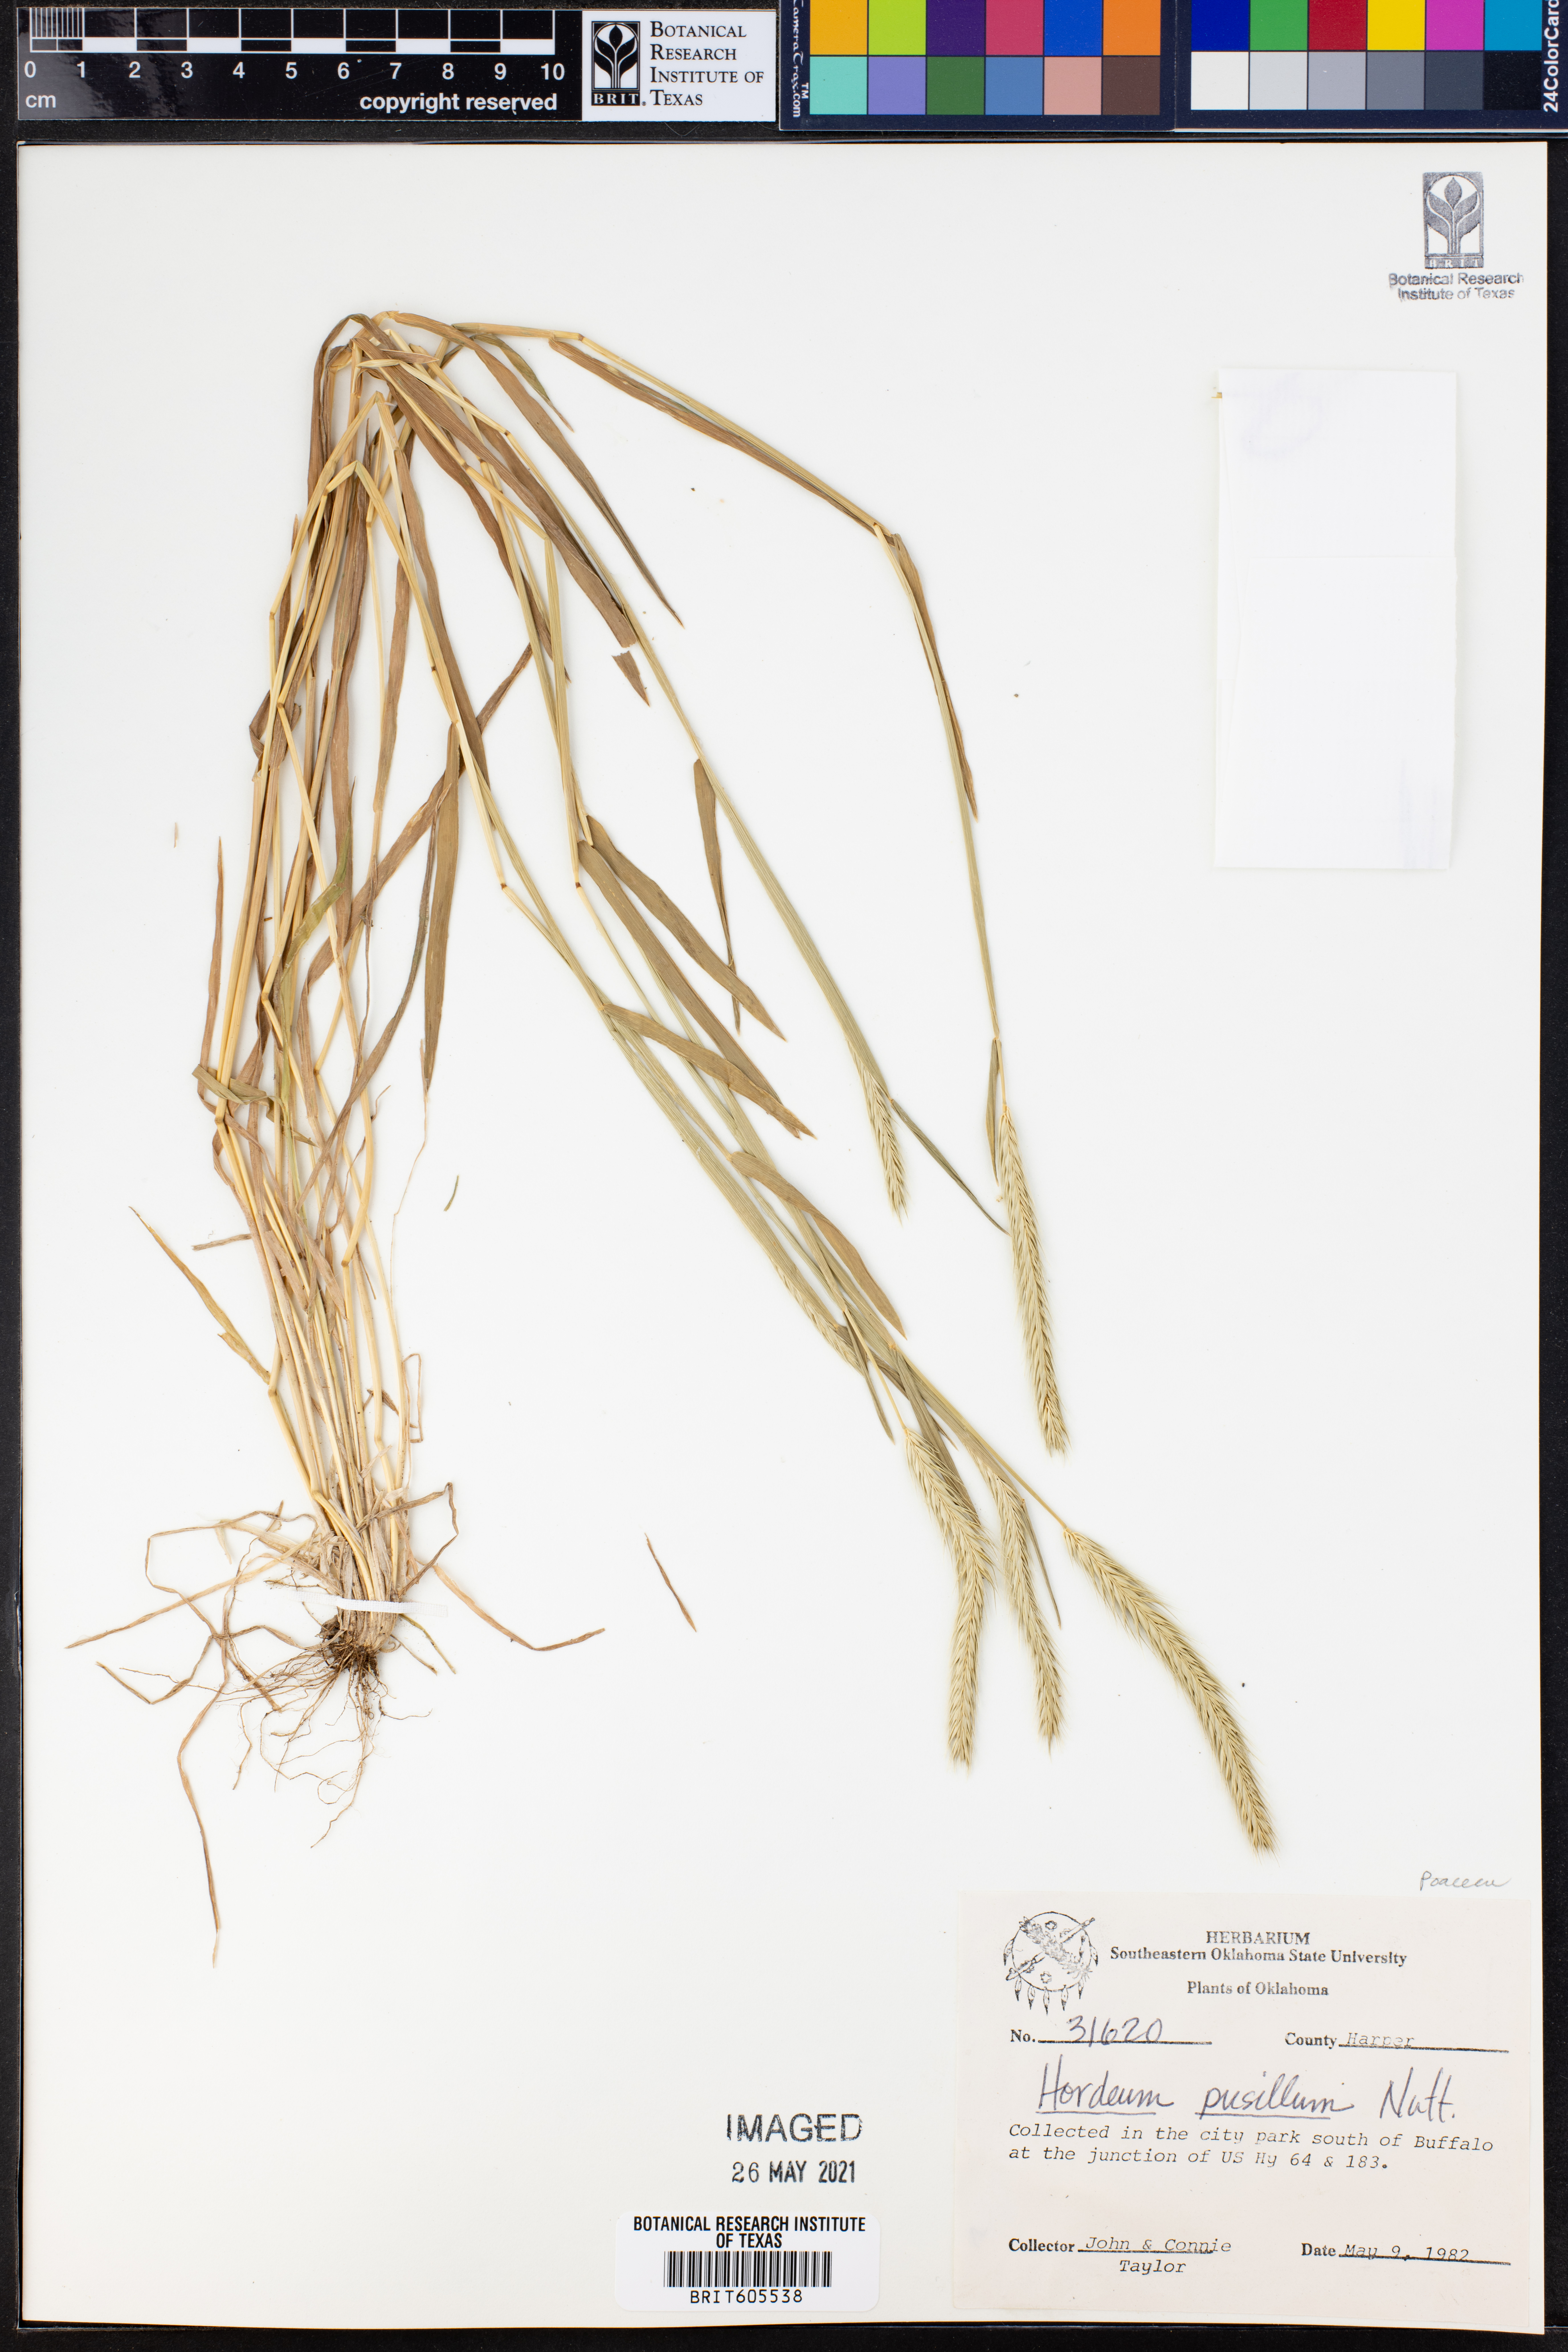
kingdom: Plantae
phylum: Tracheophyta
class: Liliopsida
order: Poales
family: Poaceae
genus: Hordeum
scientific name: Hordeum pusillum
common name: Little barley
